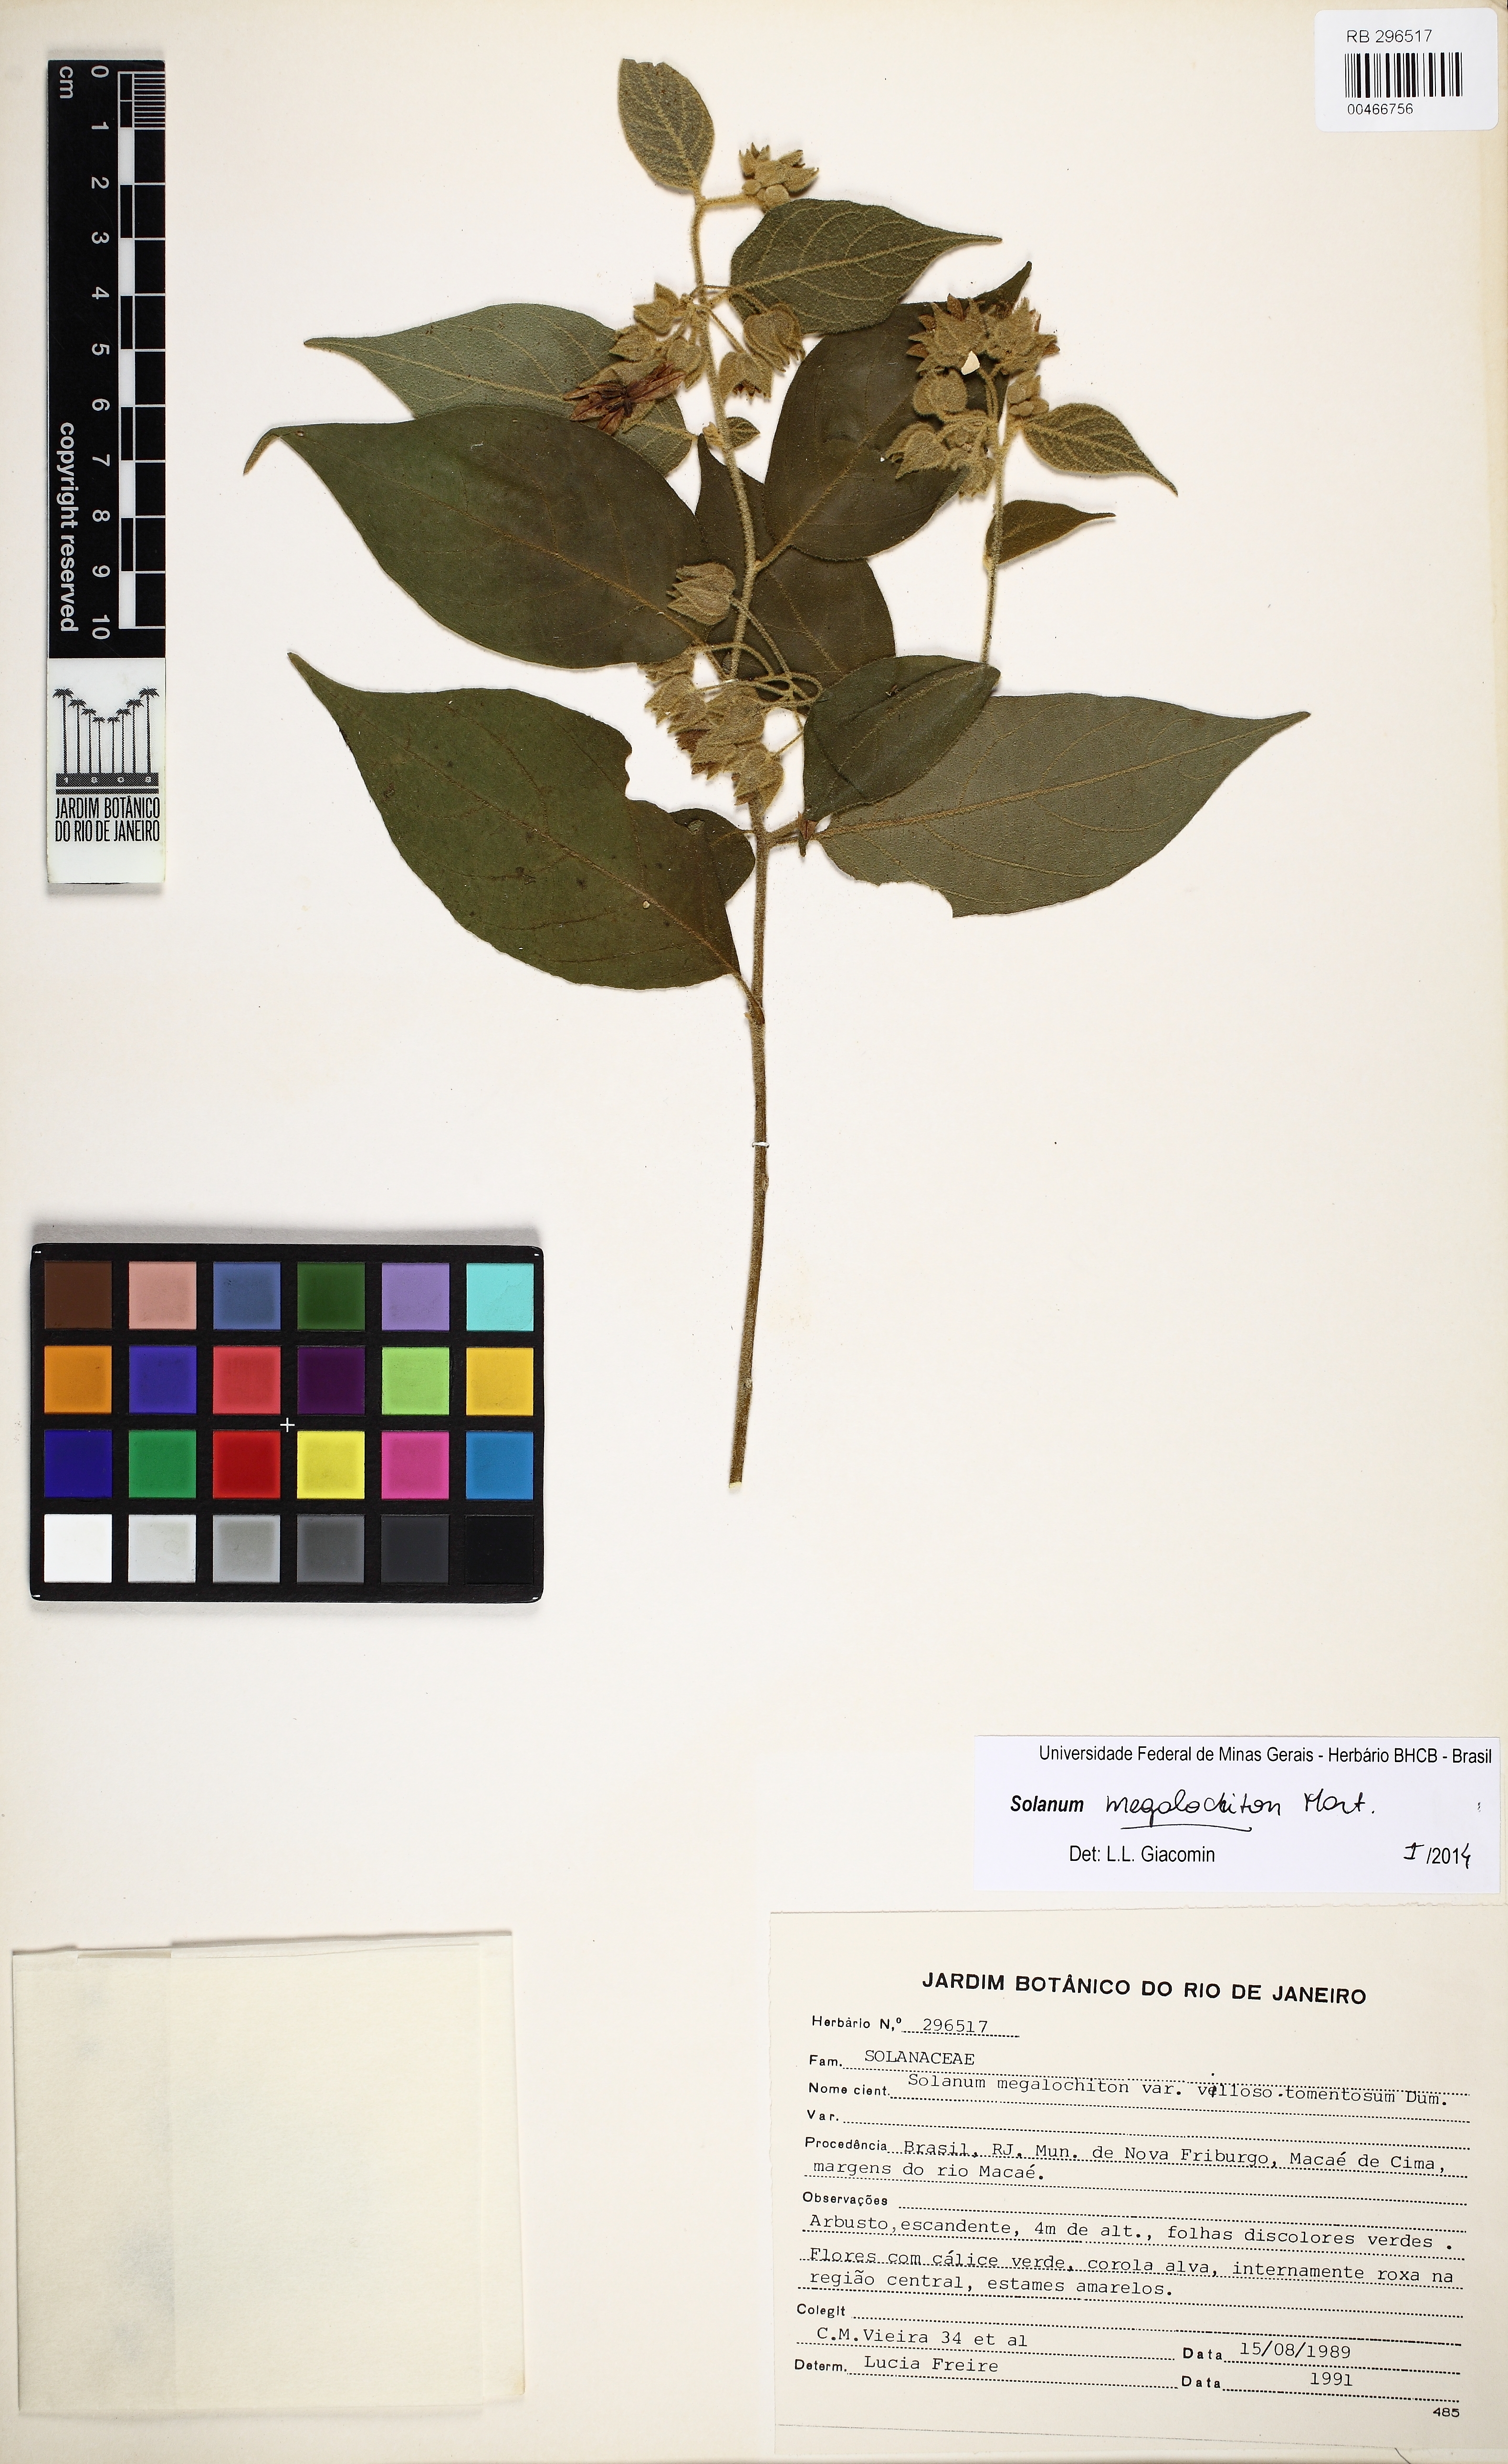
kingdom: Plantae
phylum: Tracheophyta
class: Magnoliopsida
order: Solanales
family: Solanaceae
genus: Solanum
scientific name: Solanum megalochiton
